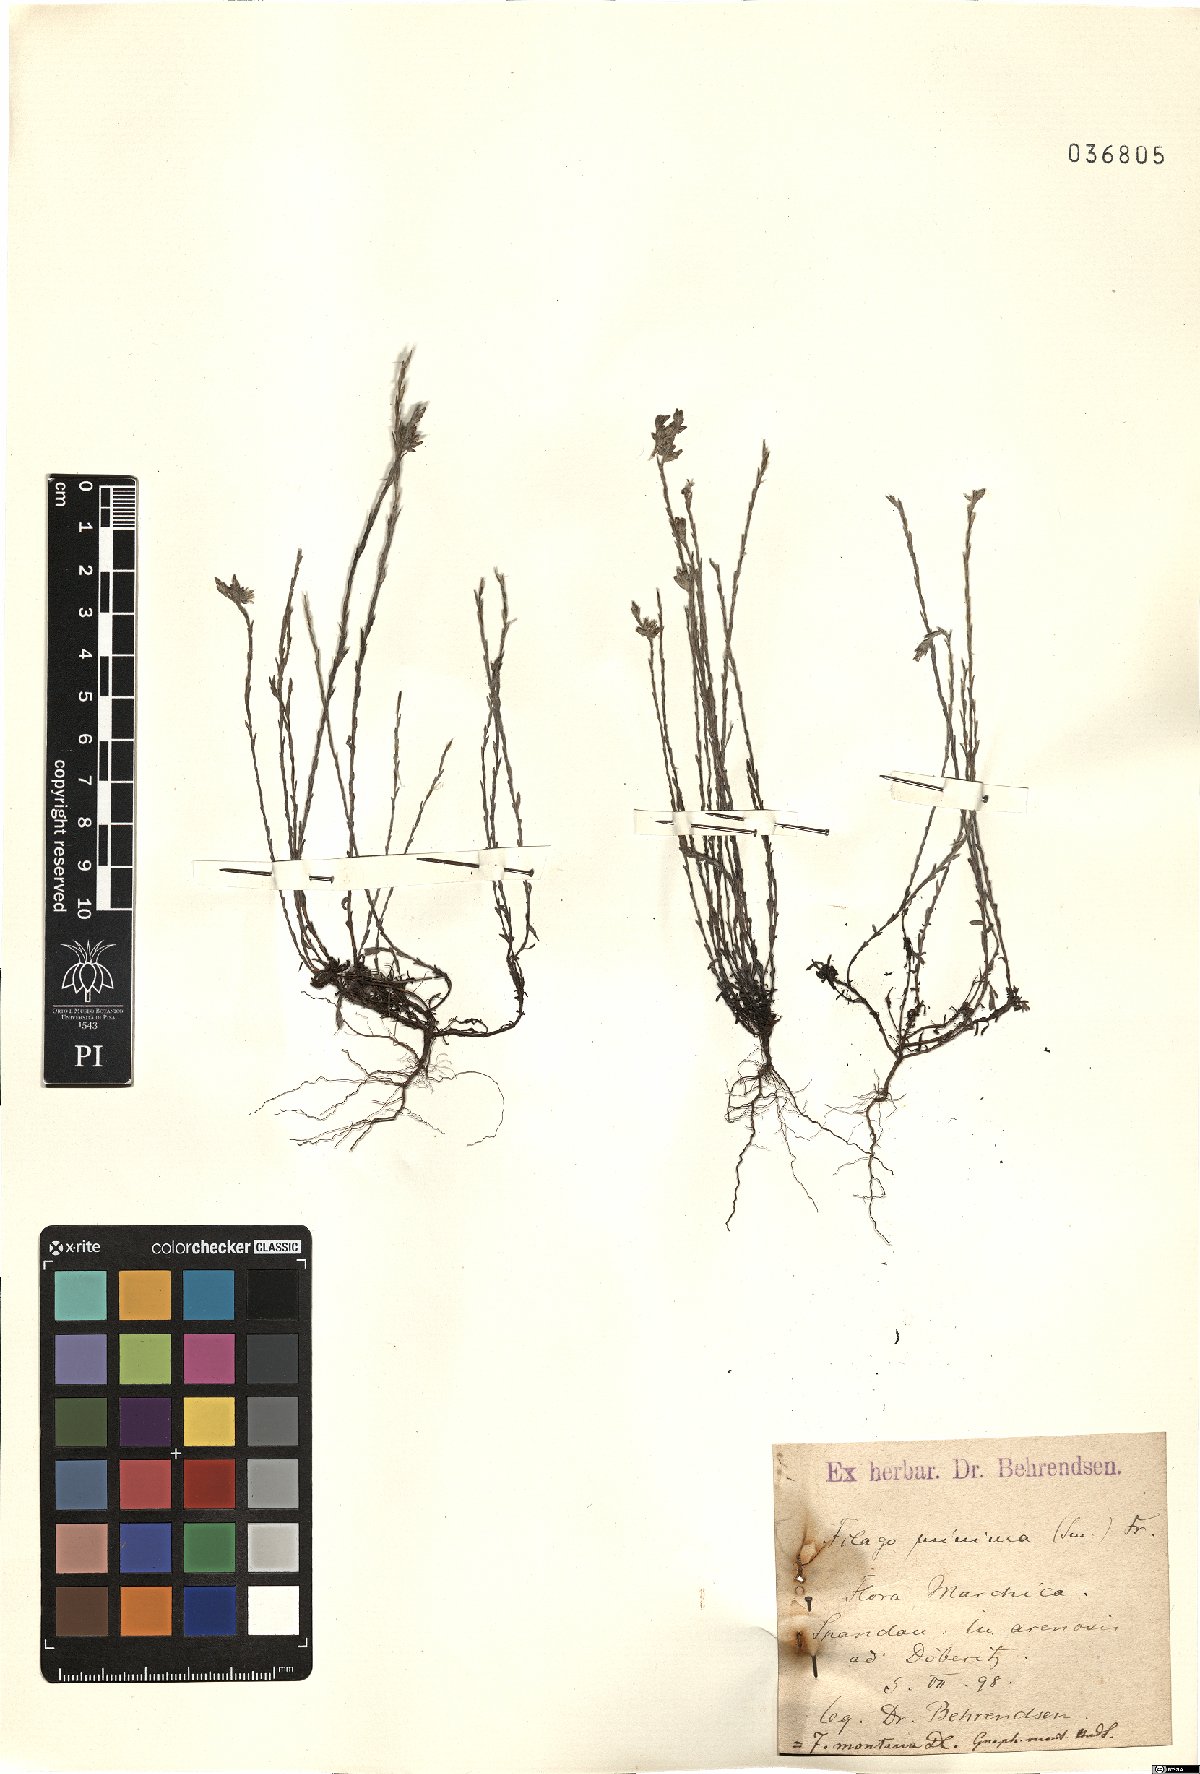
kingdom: Plantae
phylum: Tracheophyta
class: Magnoliopsida
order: Asterales
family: Asteraceae
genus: Logfia
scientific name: Logfia minima
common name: Little cottonrose
